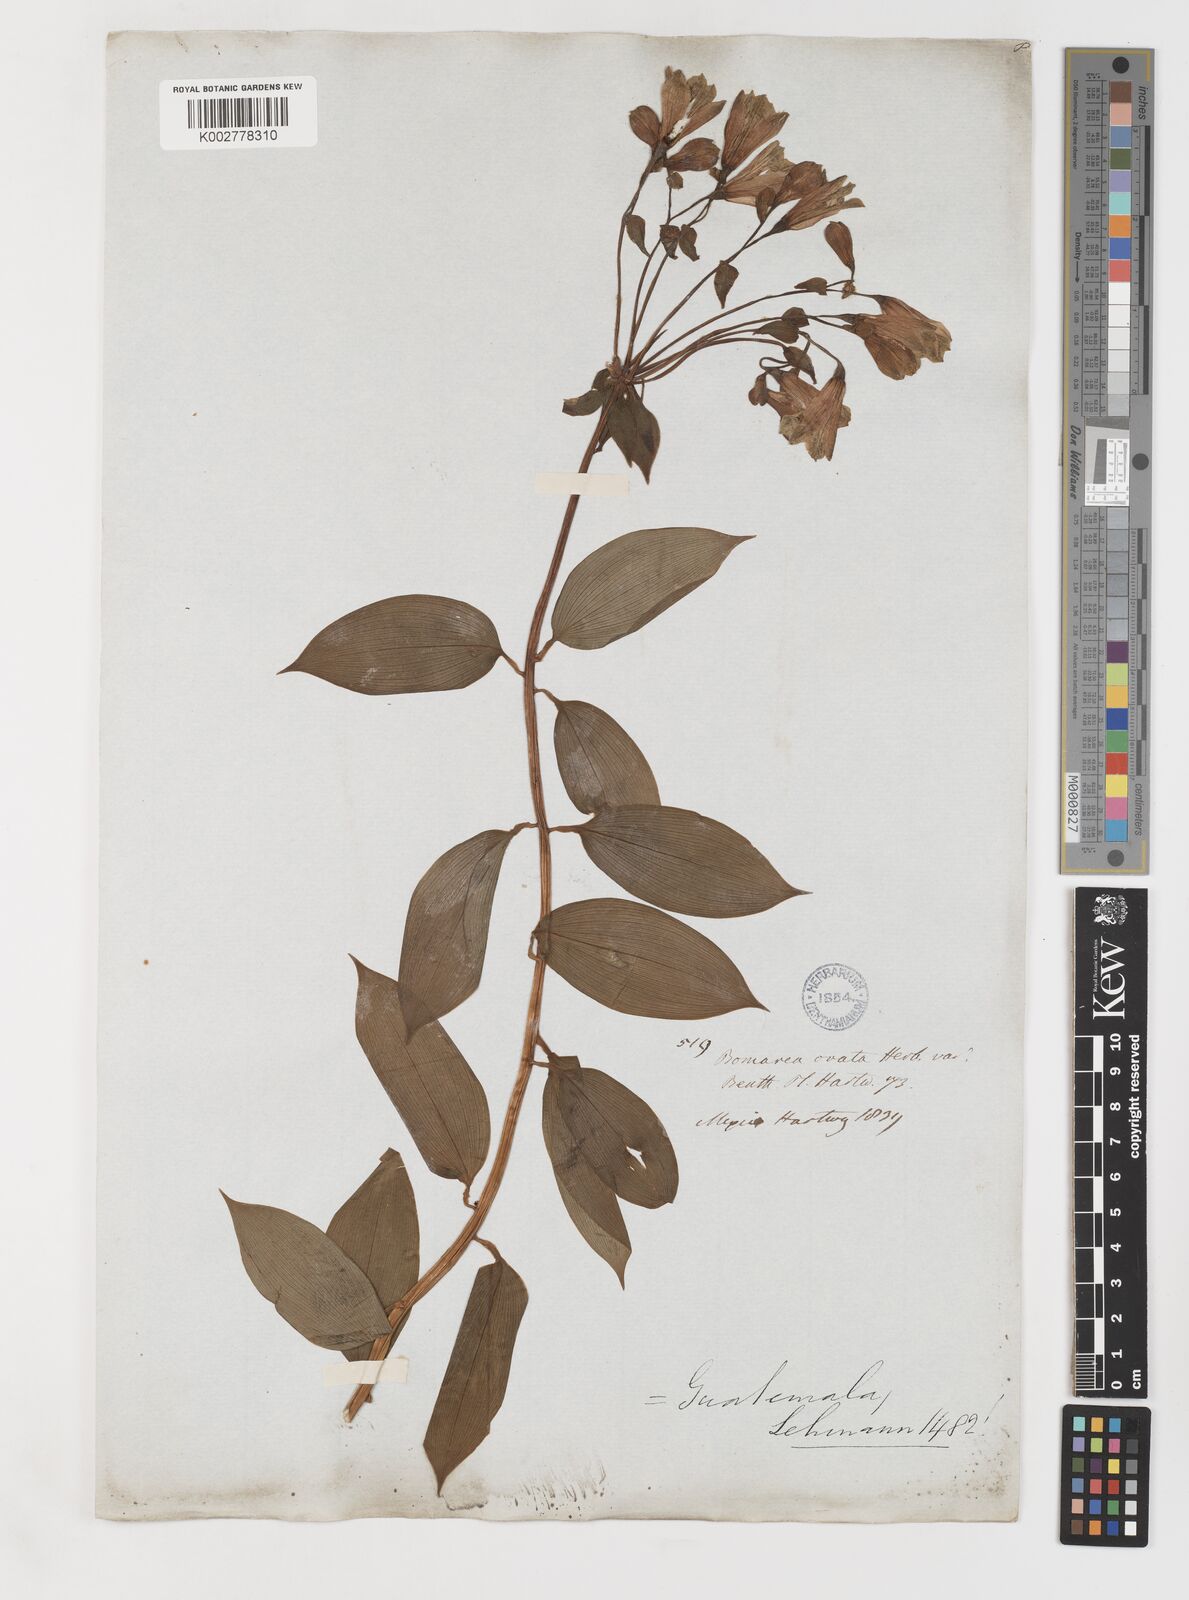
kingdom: Plantae
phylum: Tracheophyta
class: Liliopsida
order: Liliales
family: Alstroemeriaceae
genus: Bomarea
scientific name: Bomarea edulis
